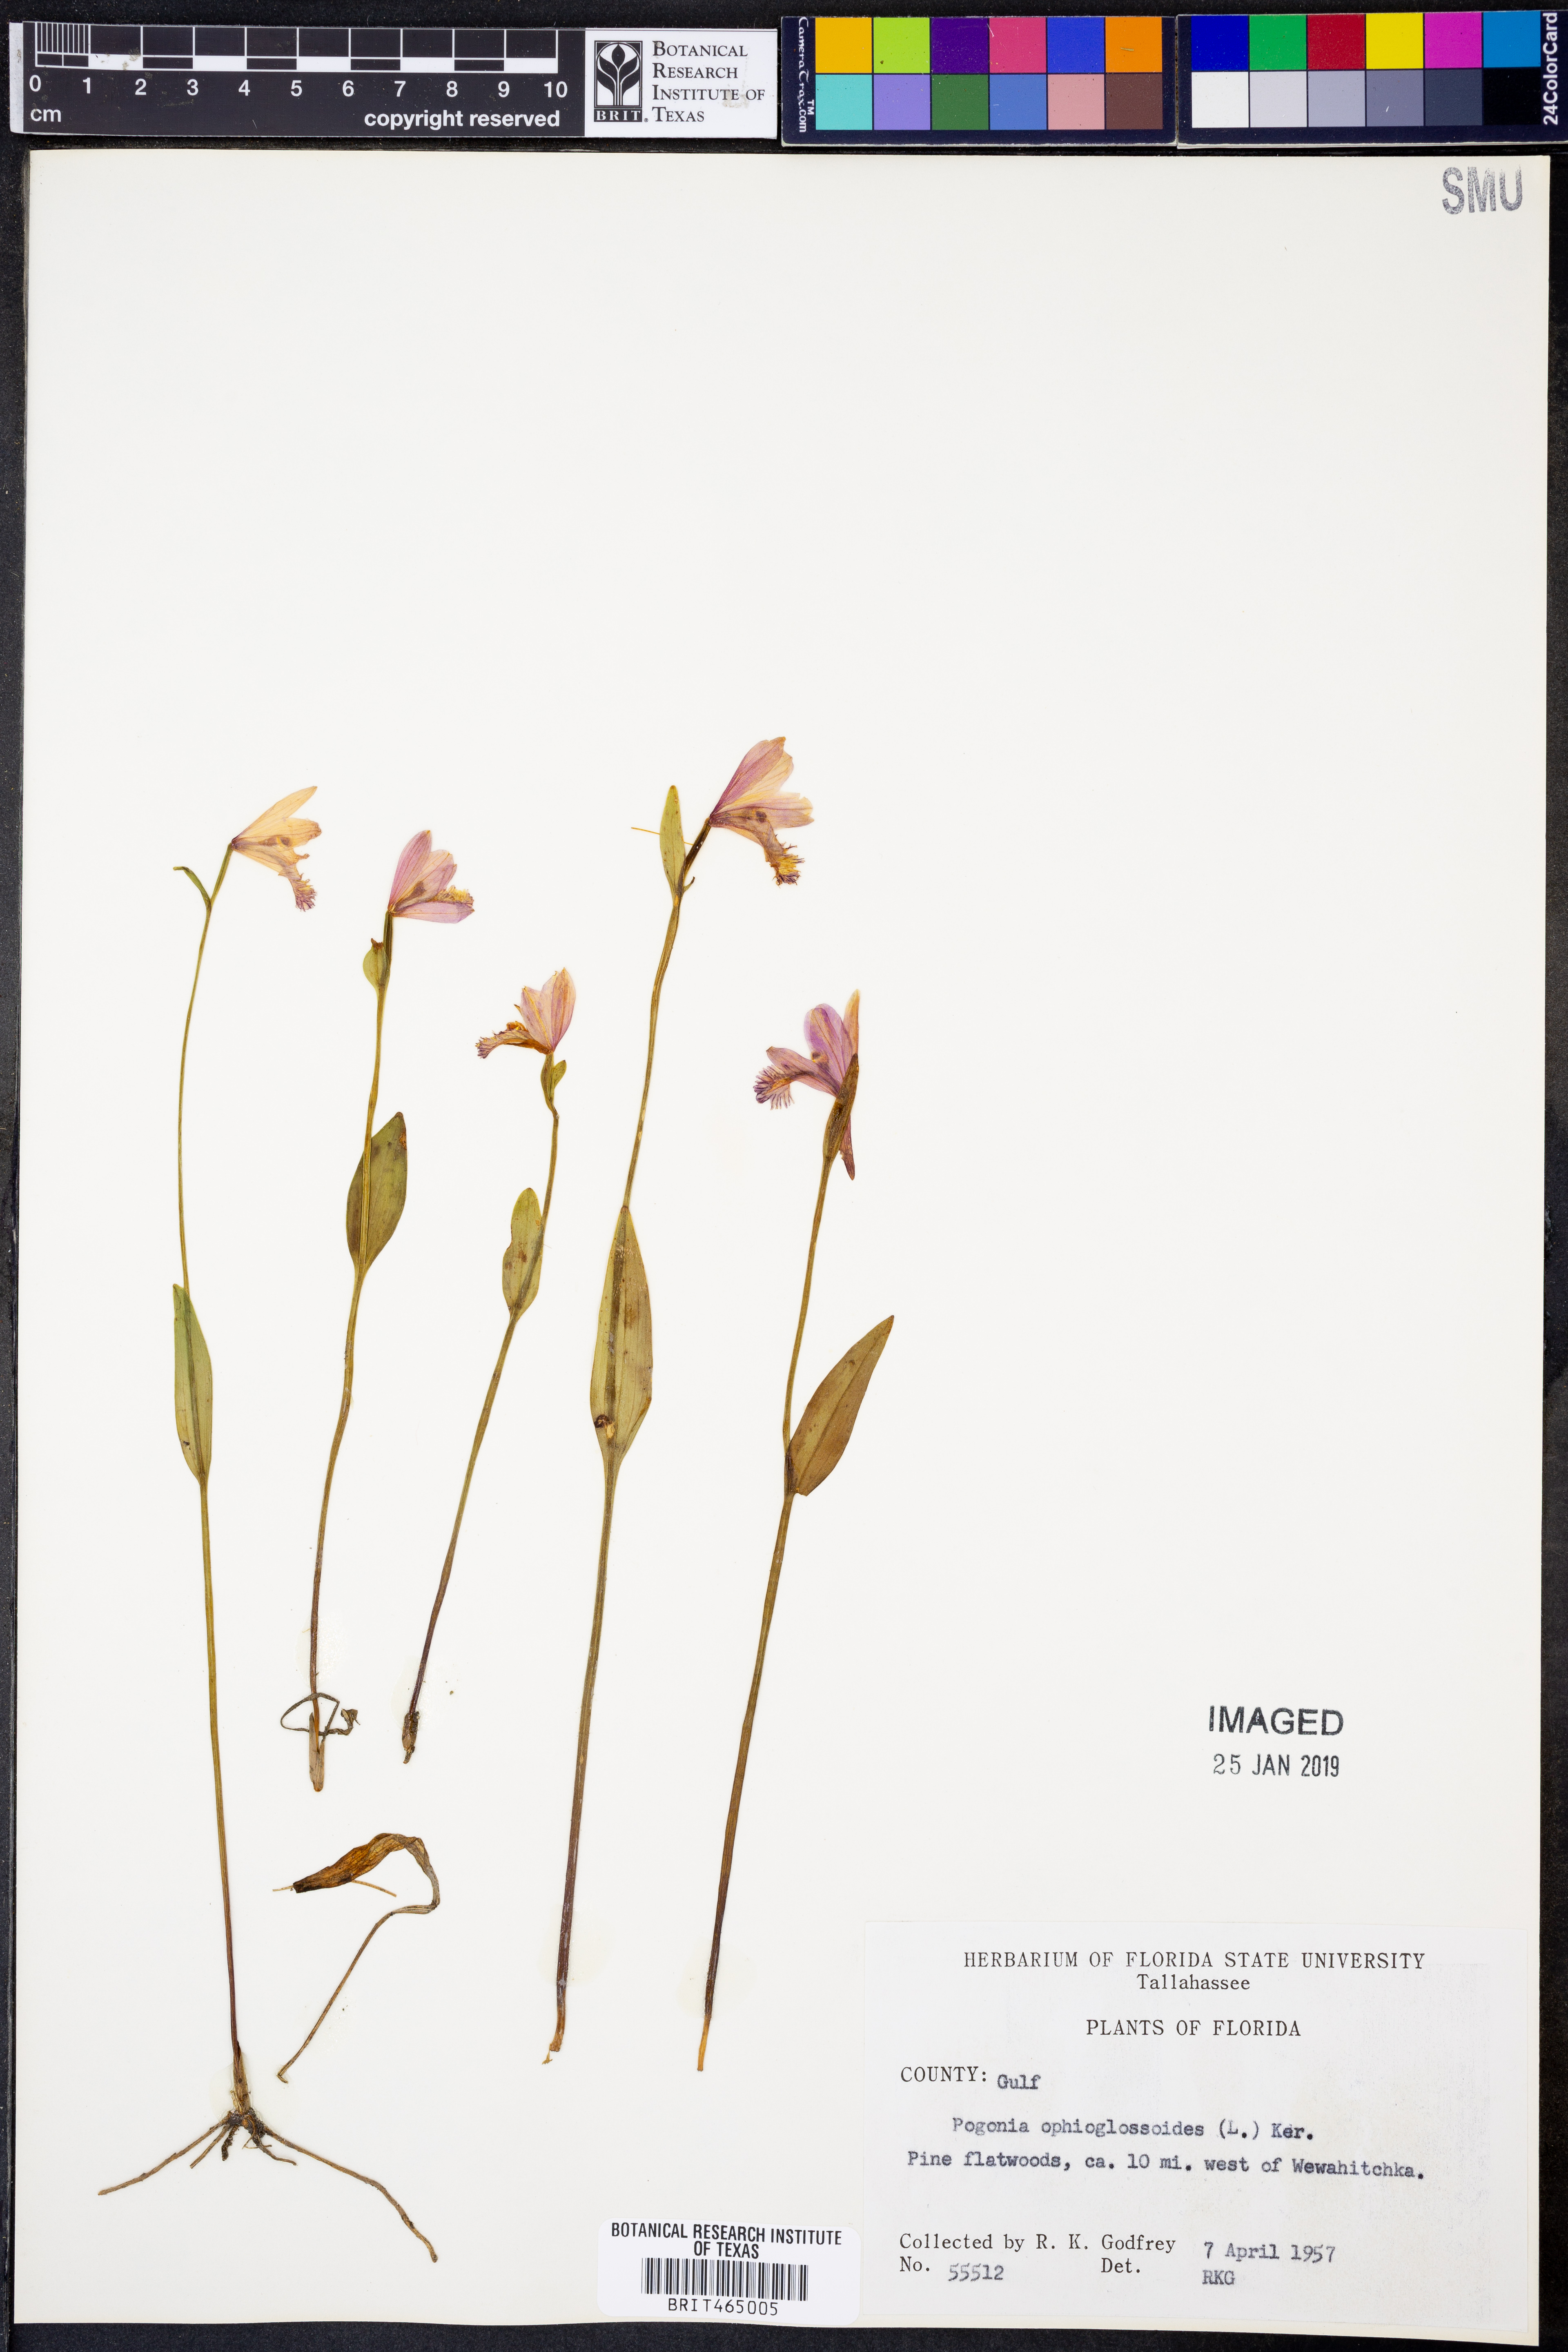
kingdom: Plantae
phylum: Tracheophyta
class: Liliopsida
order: Asparagales
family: Orchidaceae
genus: Pogonia
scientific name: Pogonia ophioglossoides
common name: Rose pogonia
